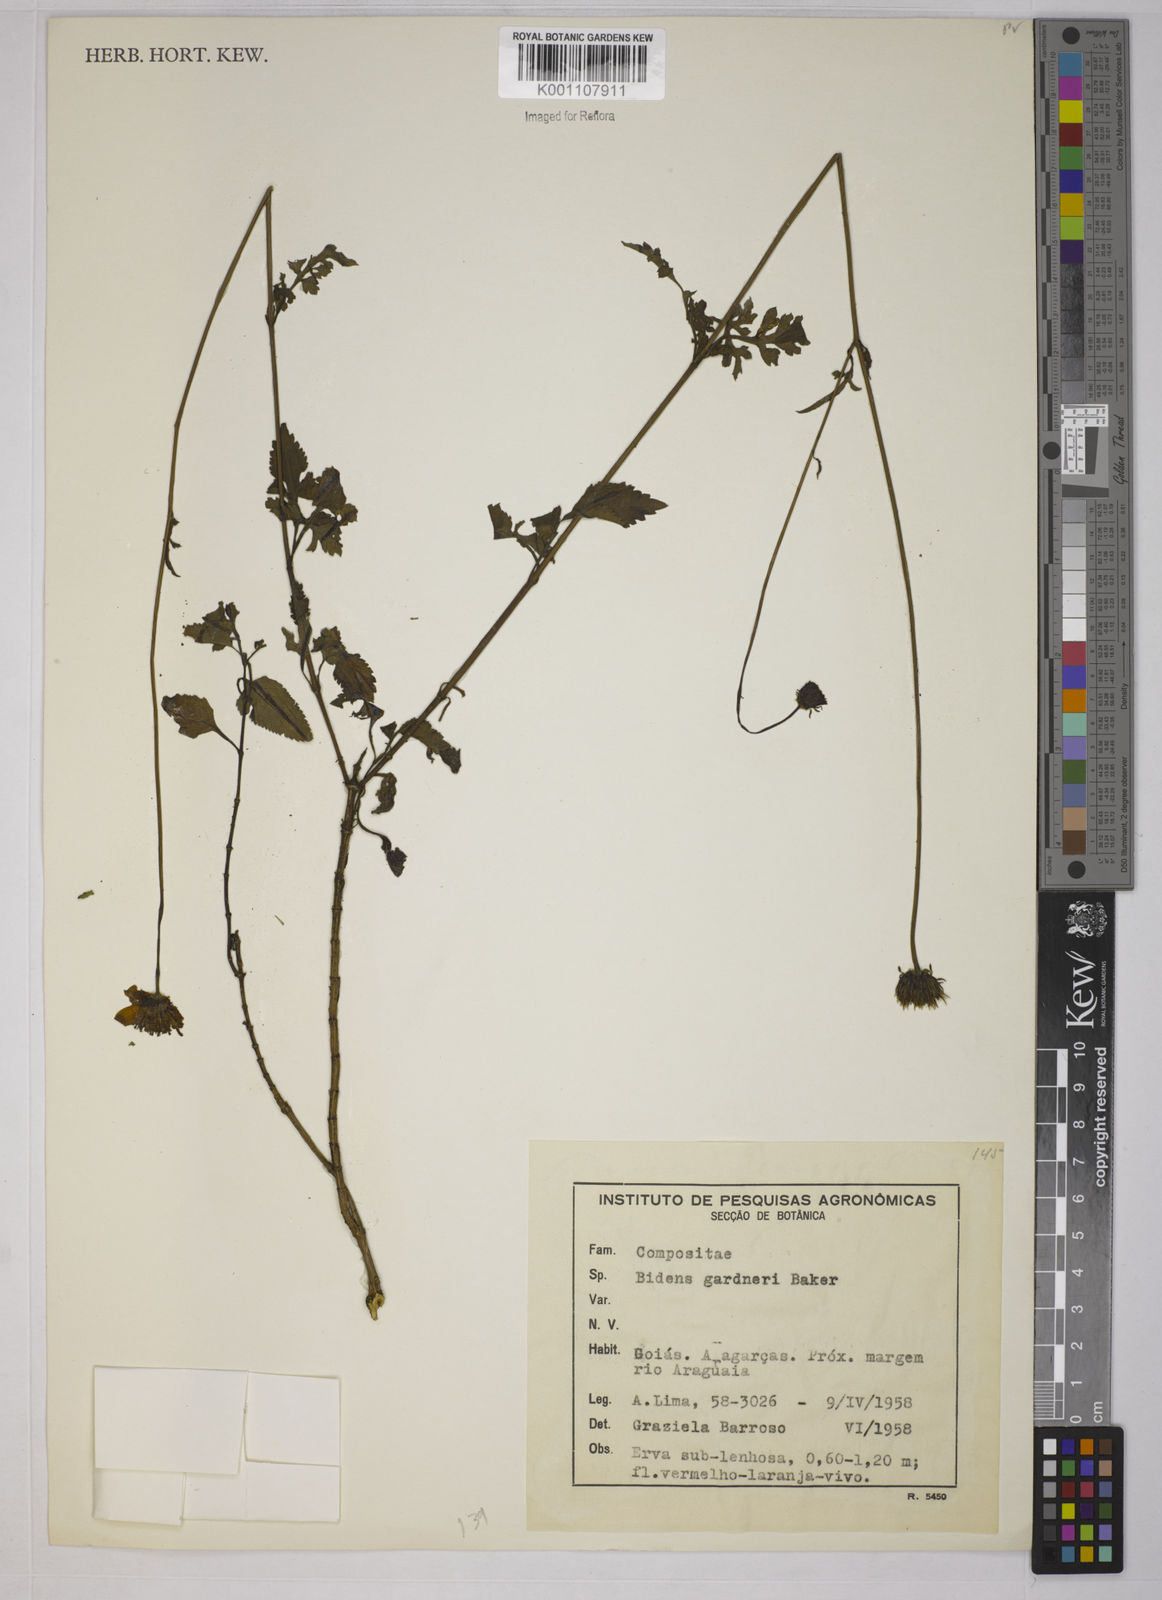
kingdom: Plantae
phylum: Tracheophyta
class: Magnoliopsida
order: Asterales
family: Asteraceae
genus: Bidens
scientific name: Bidens gardneri
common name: Ridge beggartick
